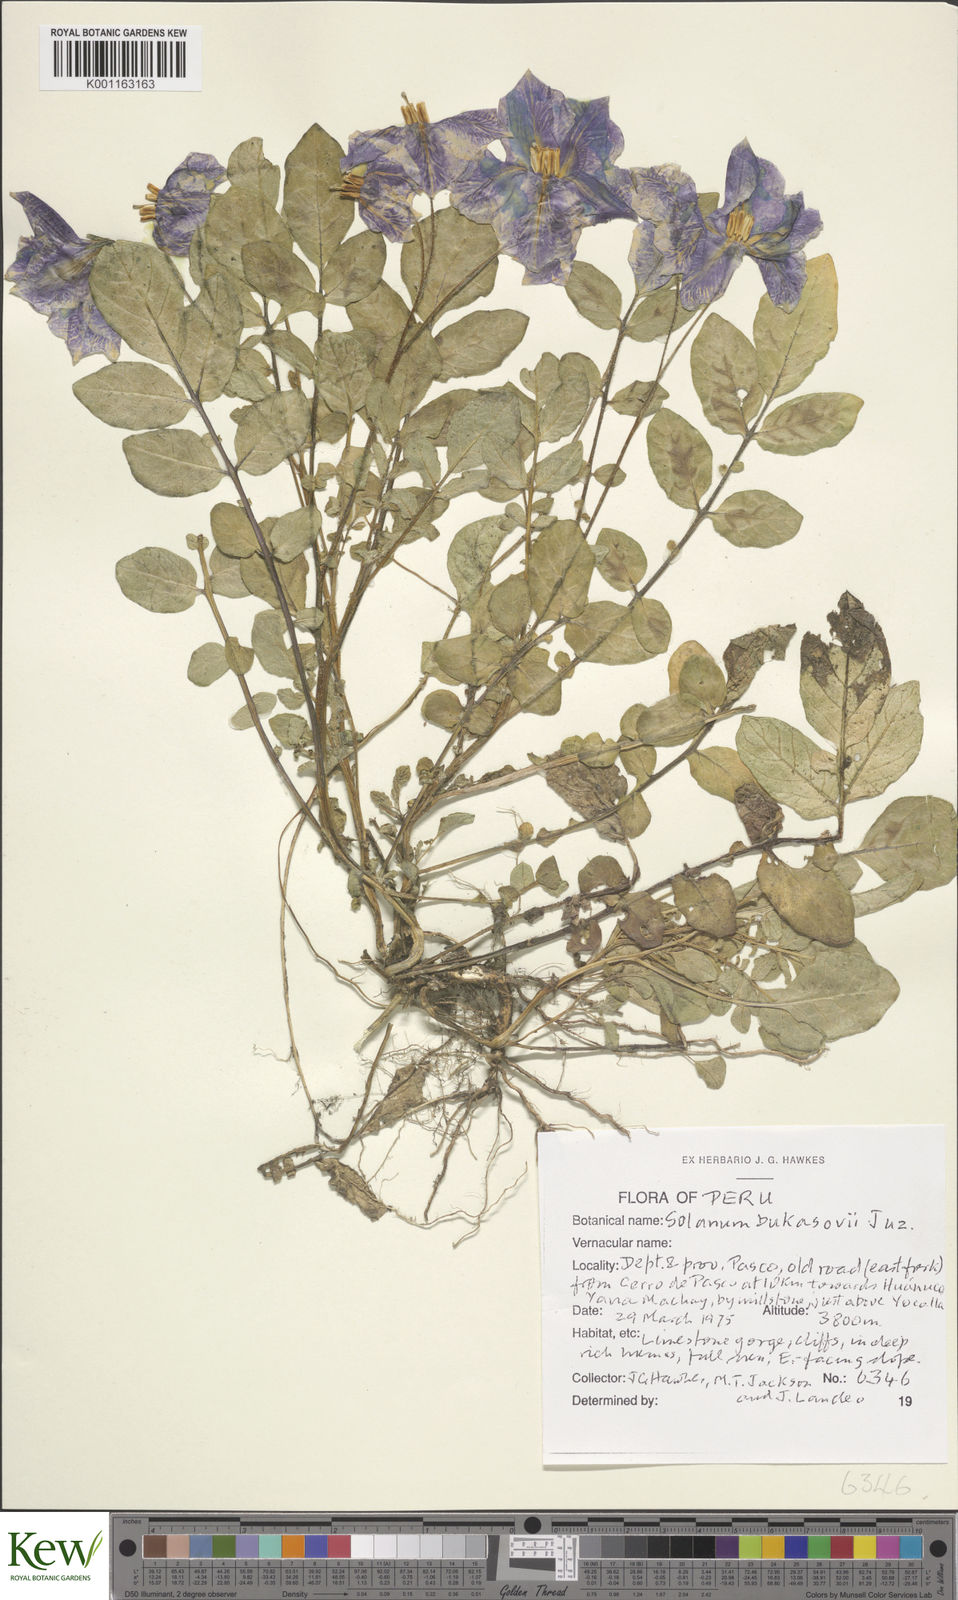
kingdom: Plantae
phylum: Tracheophyta
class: Magnoliopsida
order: Solanales
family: Solanaceae
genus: Solanum
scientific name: Solanum candolleanum
